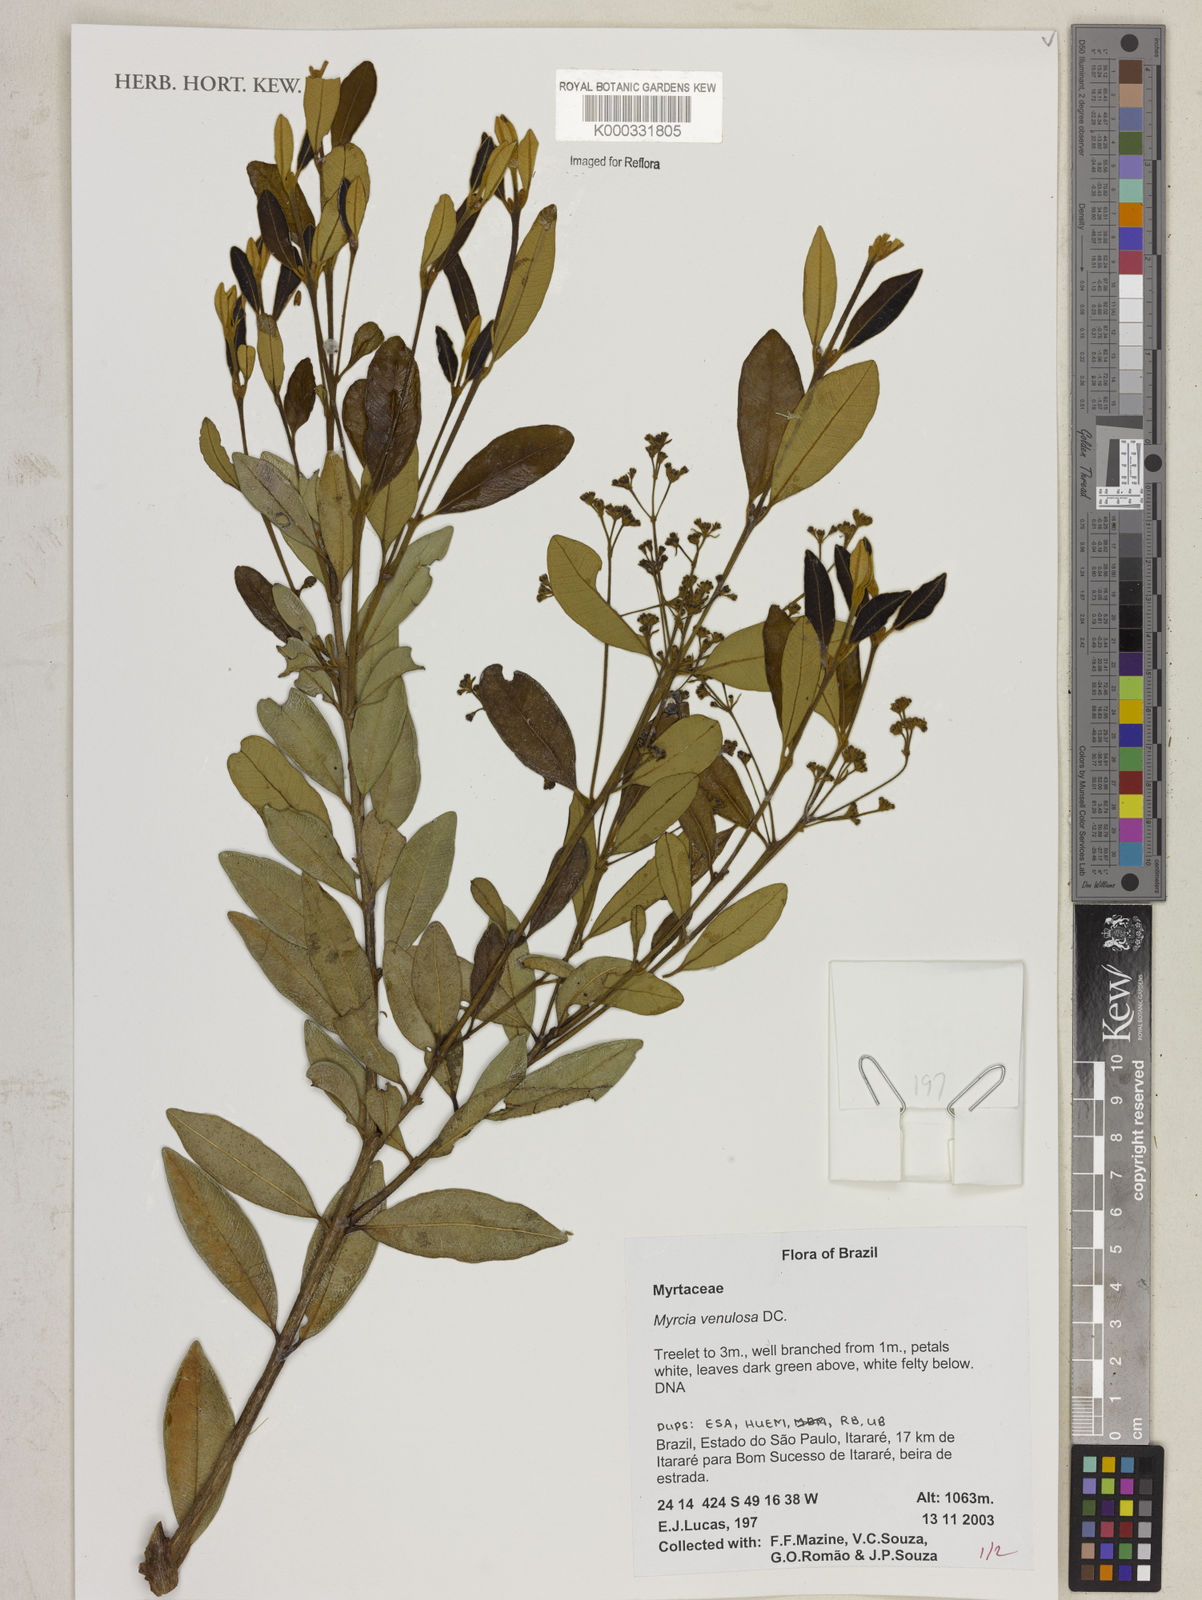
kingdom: Plantae
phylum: Tracheophyta
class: Magnoliopsida
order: Myrtales
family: Myrtaceae
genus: Myrcia
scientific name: Myrcia venulosa
